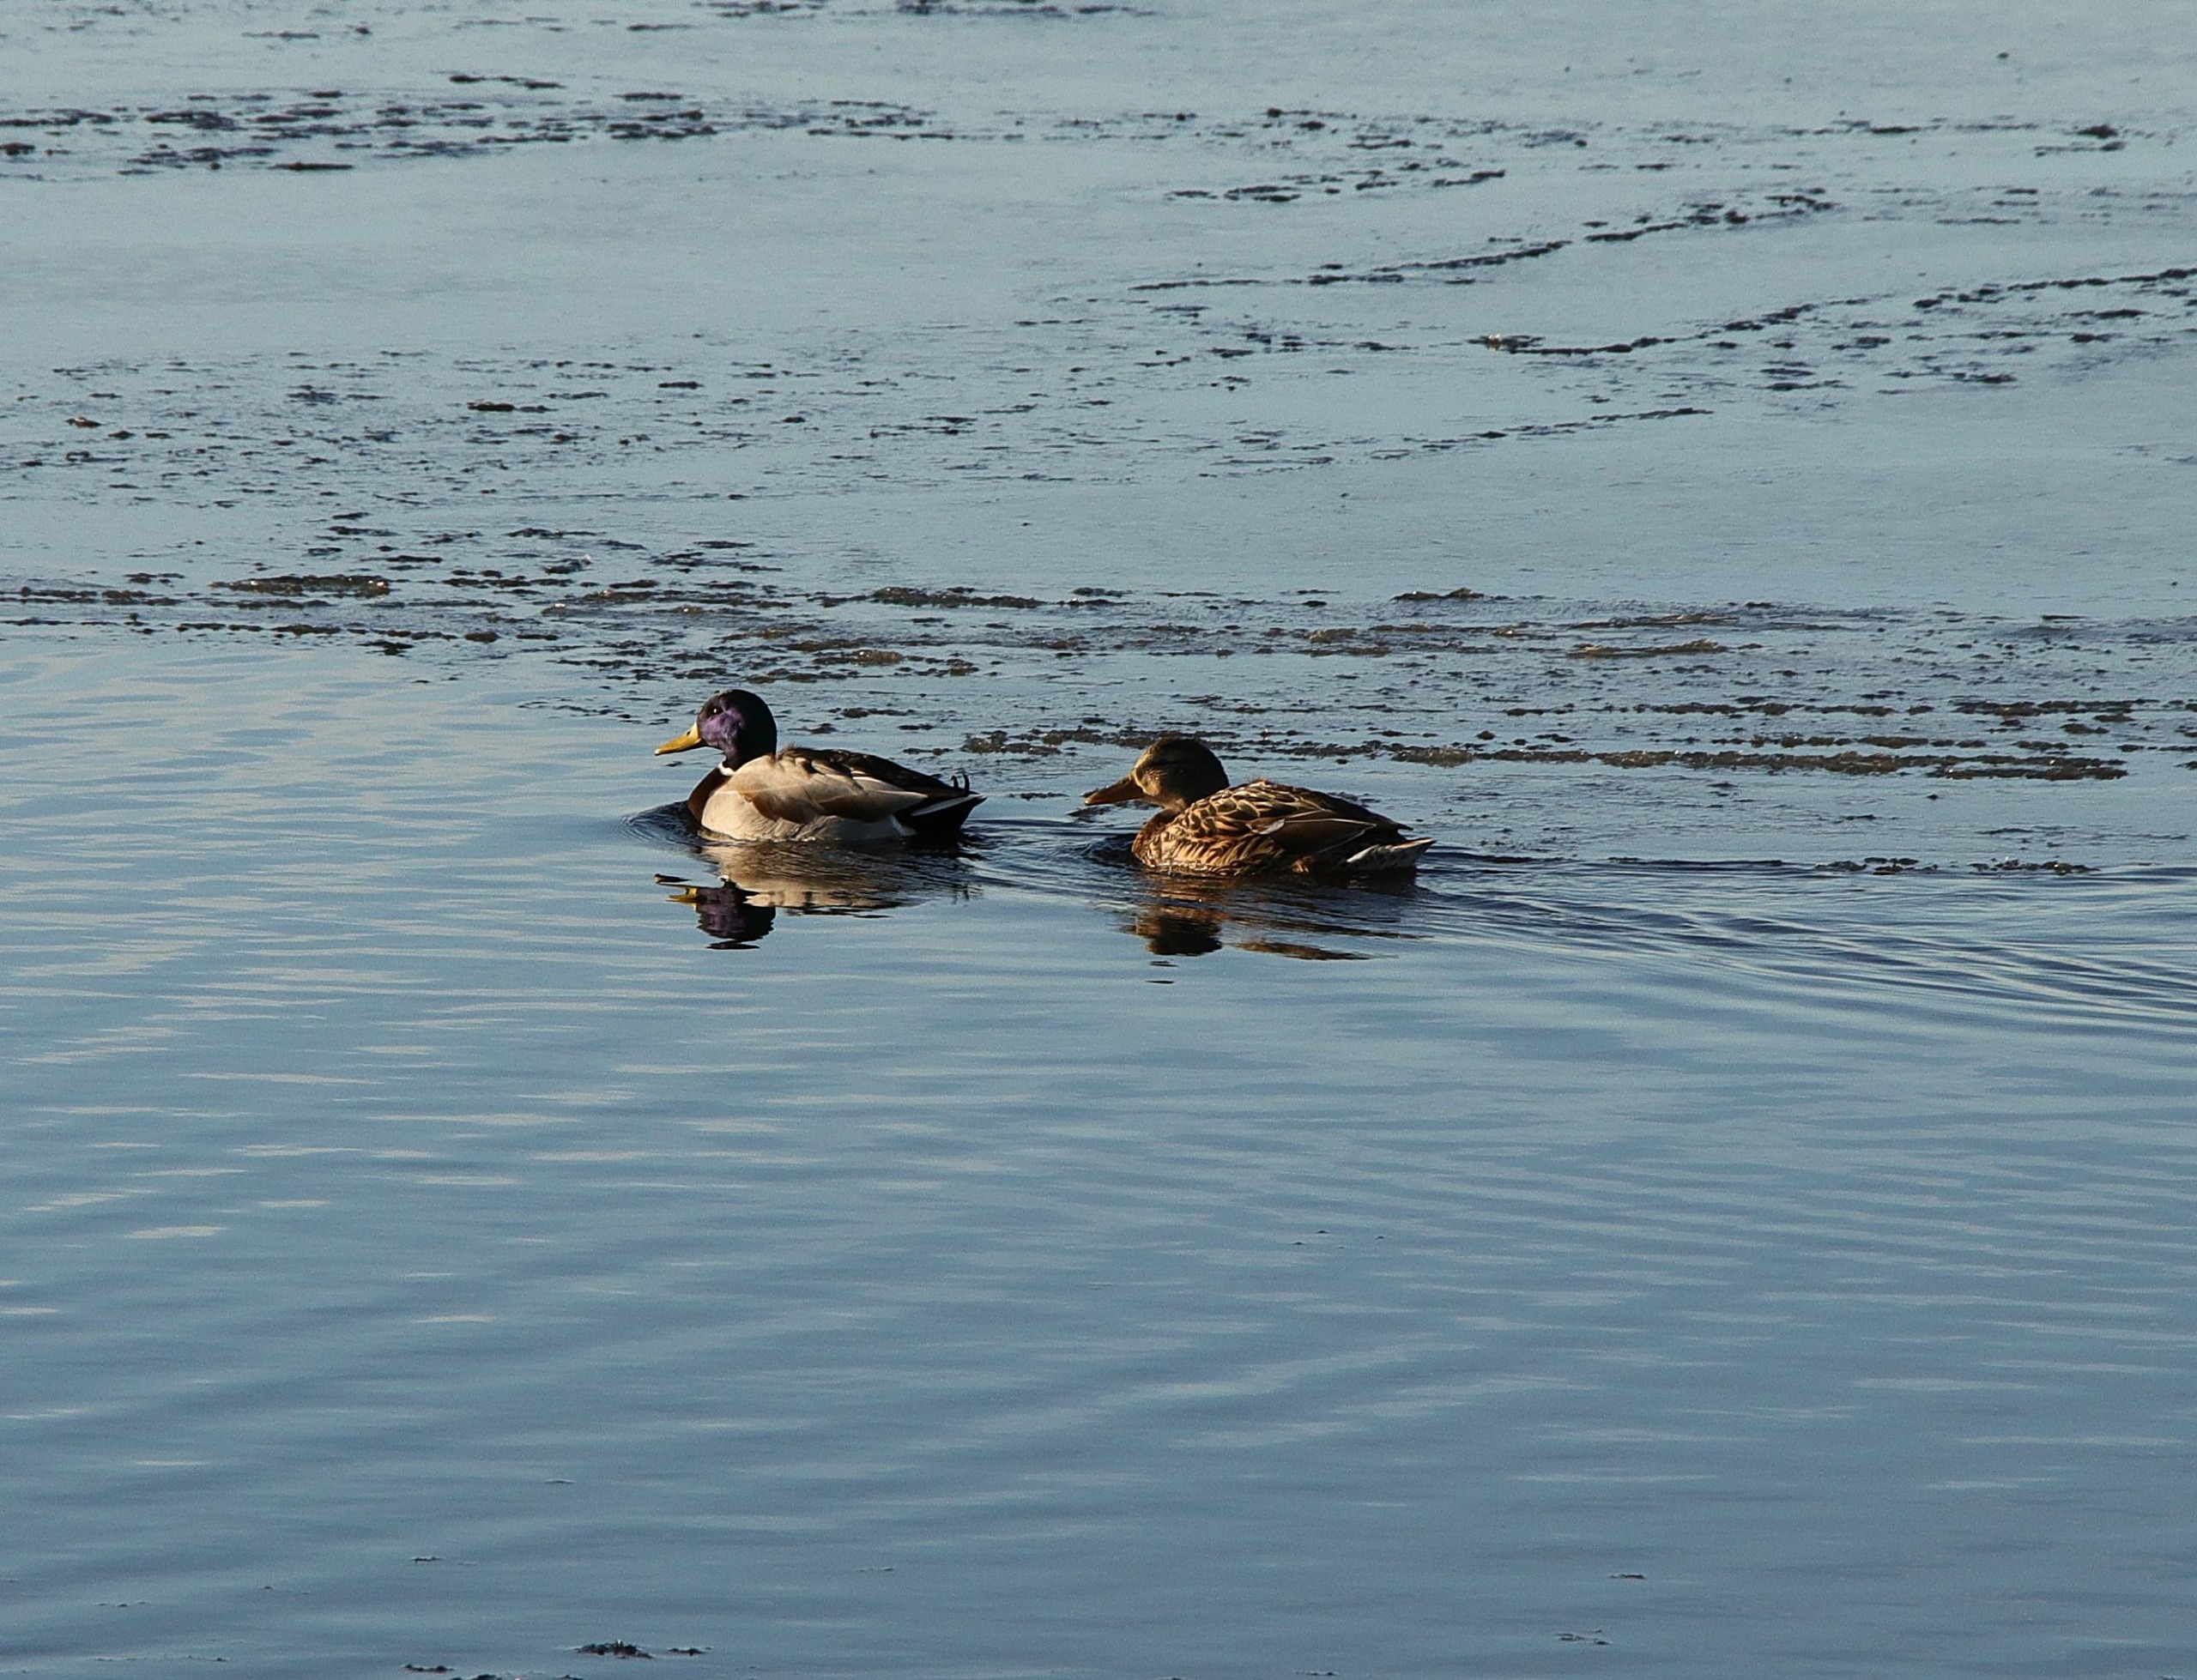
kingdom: Animalia
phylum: Chordata
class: Aves
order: Anseriformes
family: Anatidae
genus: Anas
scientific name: Anas platyrhynchos
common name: Gråand
